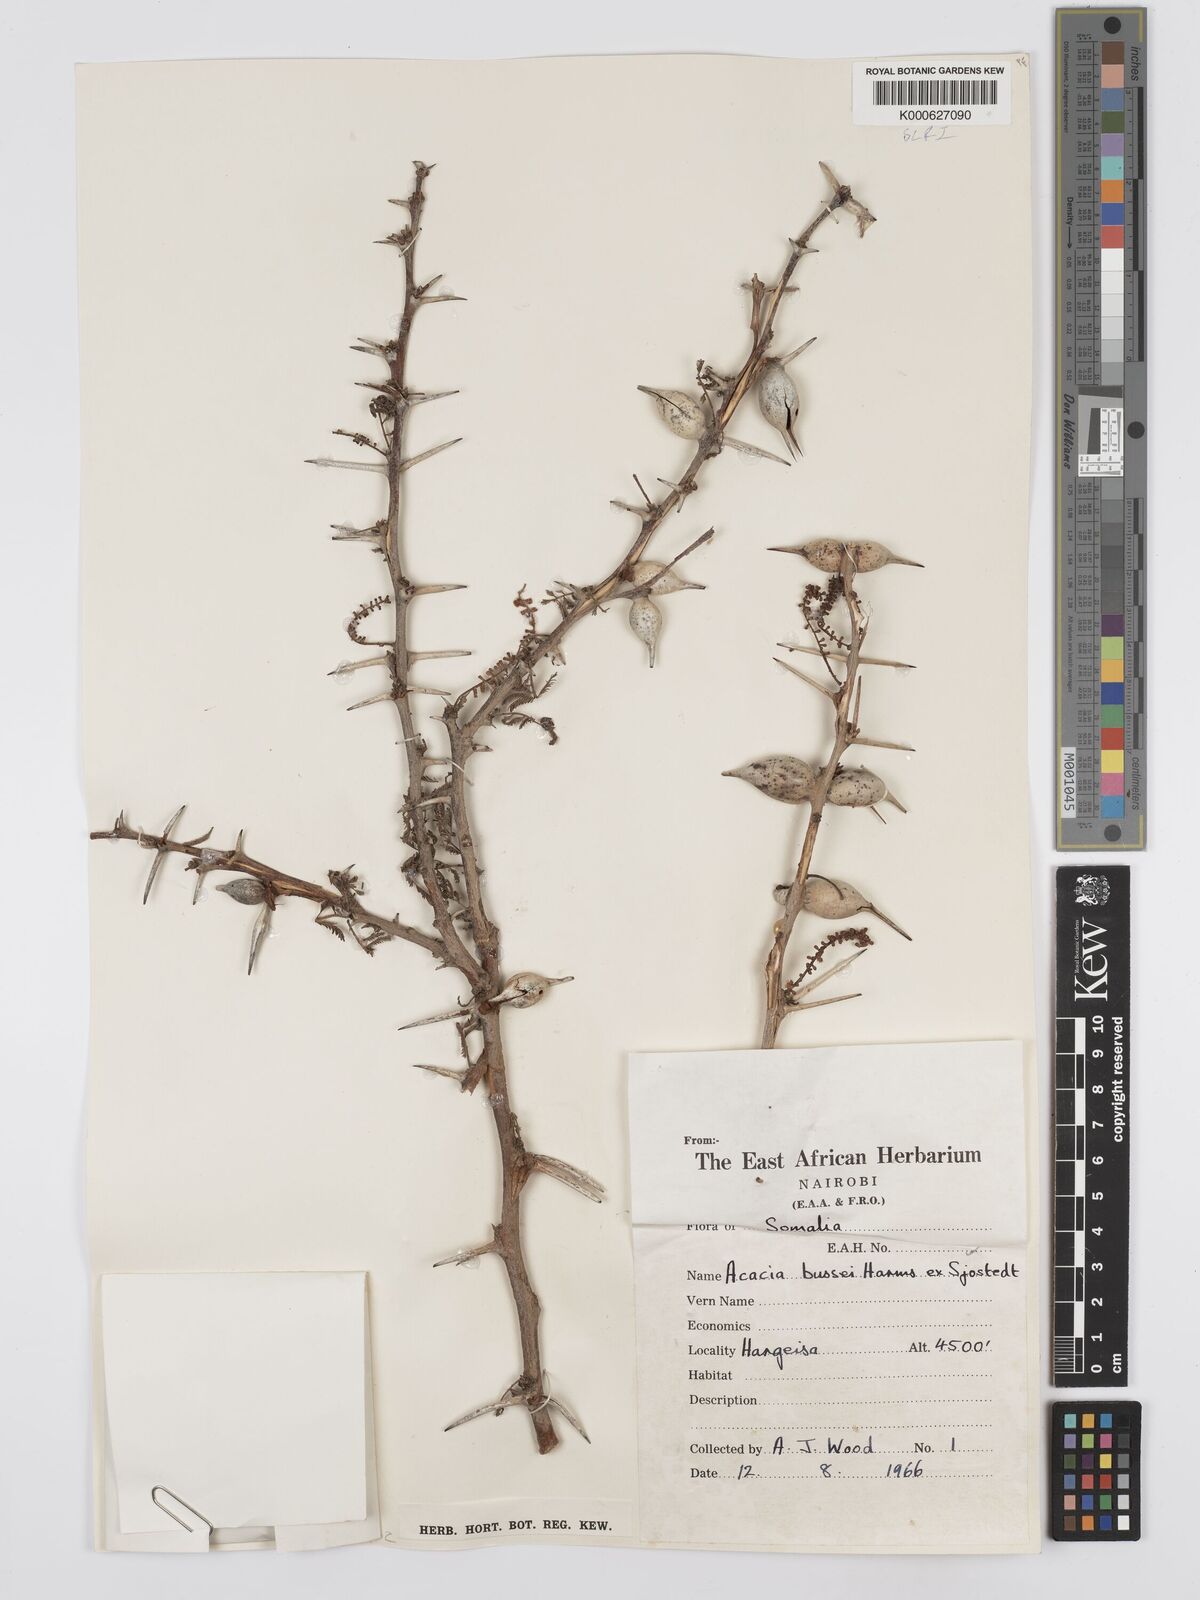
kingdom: Plantae
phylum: Tracheophyta
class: Magnoliopsida
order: Fabales
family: Fabaceae
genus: Vachellia
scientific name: Vachellia bussei
